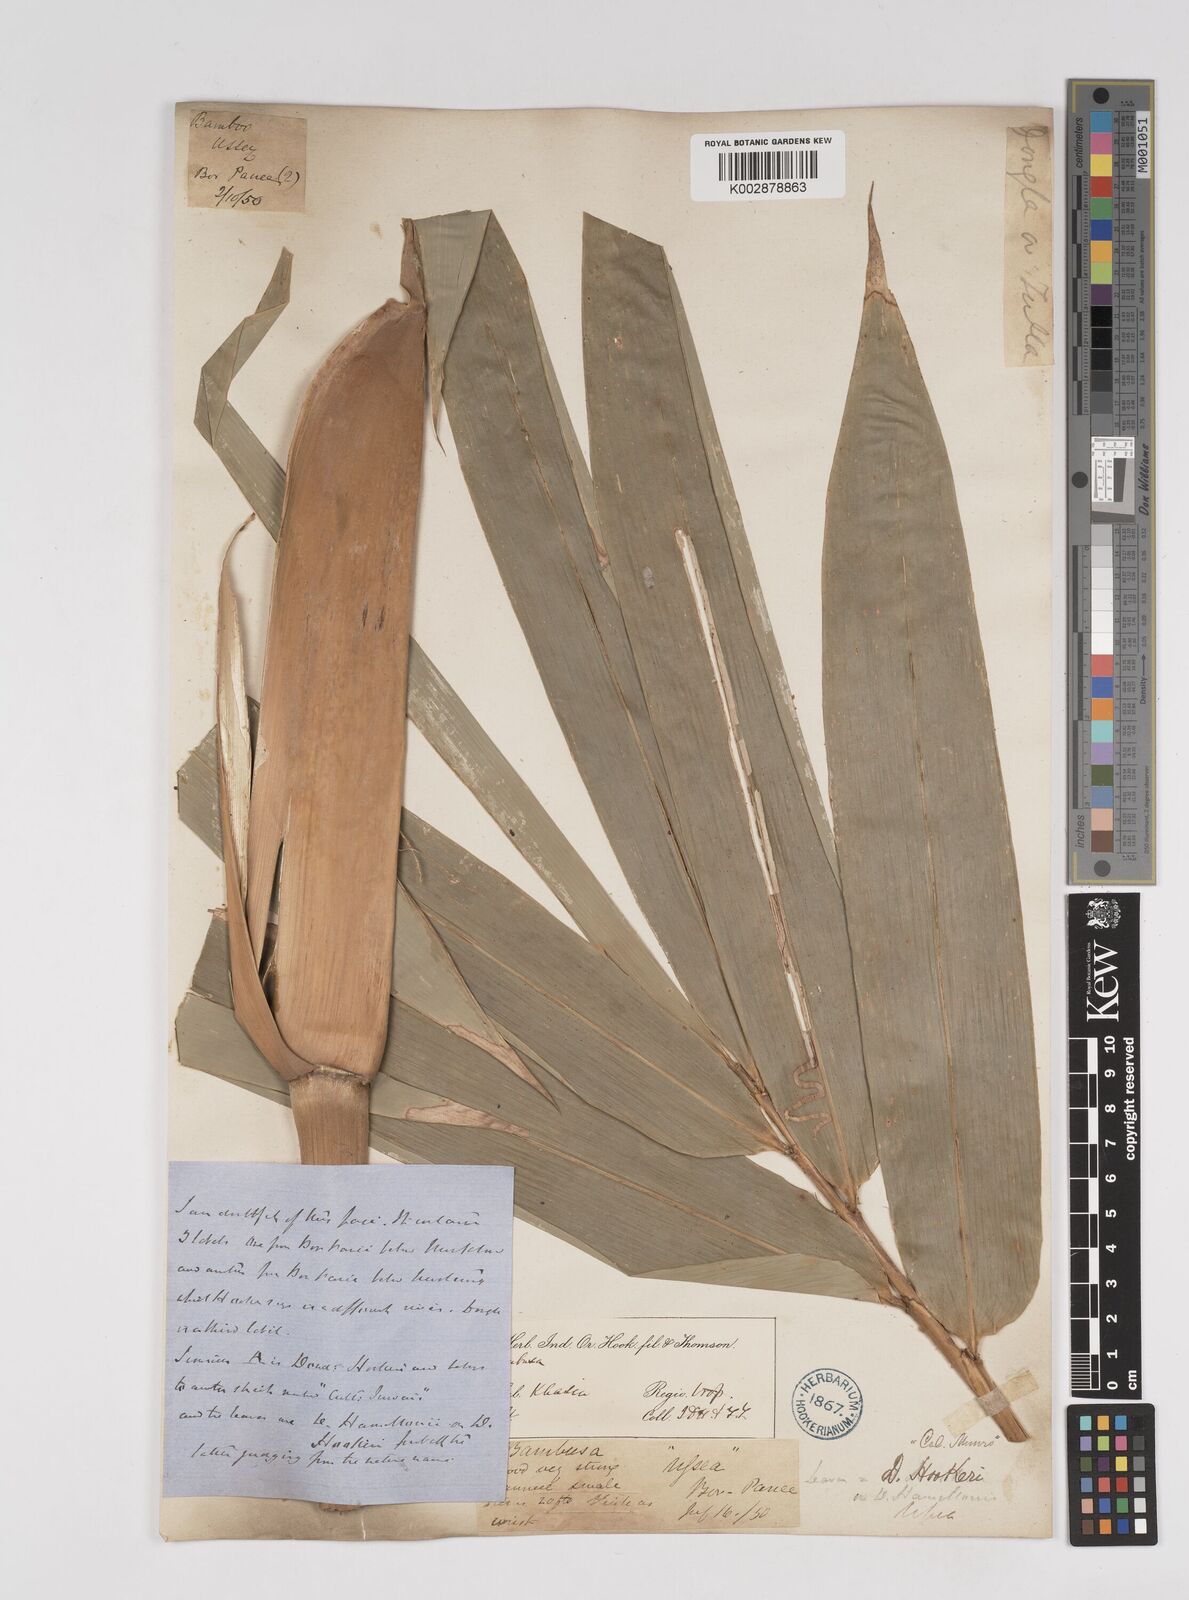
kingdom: Plantae
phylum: Tracheophyta
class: Liliopsida
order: Poales
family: Poaceae
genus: Dendrocalamus
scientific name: Dendrocalamus hookeri
